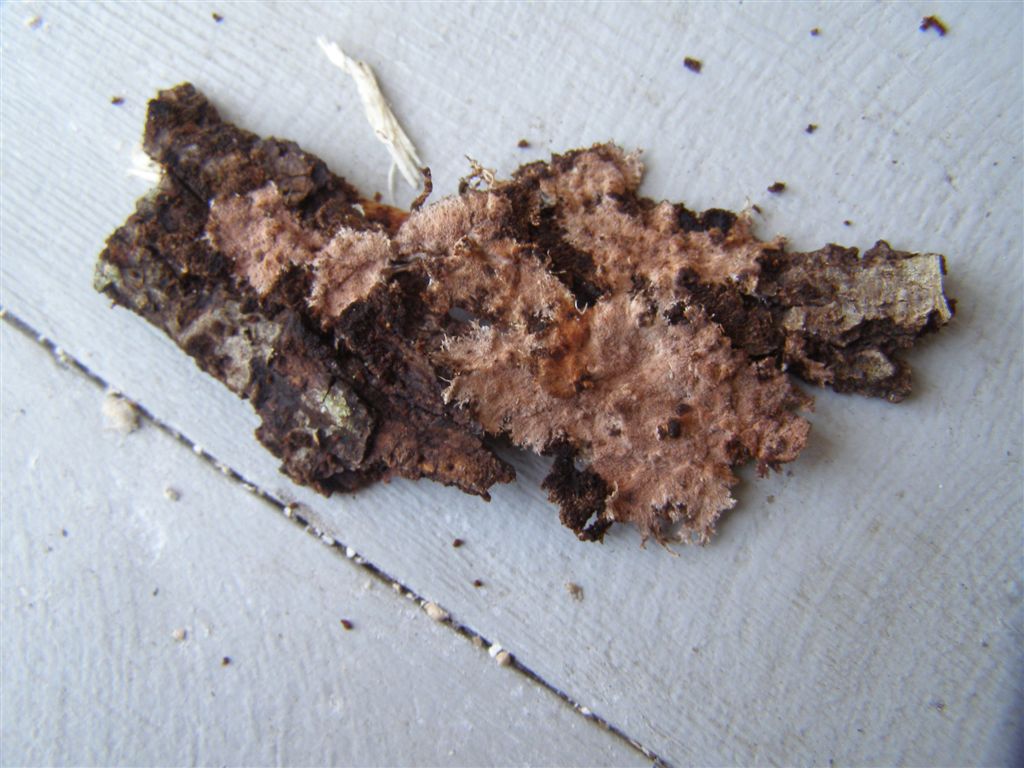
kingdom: Fungi
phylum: Basidiomycota
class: Agaricomycetes
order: Polyporales
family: Steccherinaceae
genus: Steccherinum
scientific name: Steccherinum fimbriatum
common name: trådet skønpig
